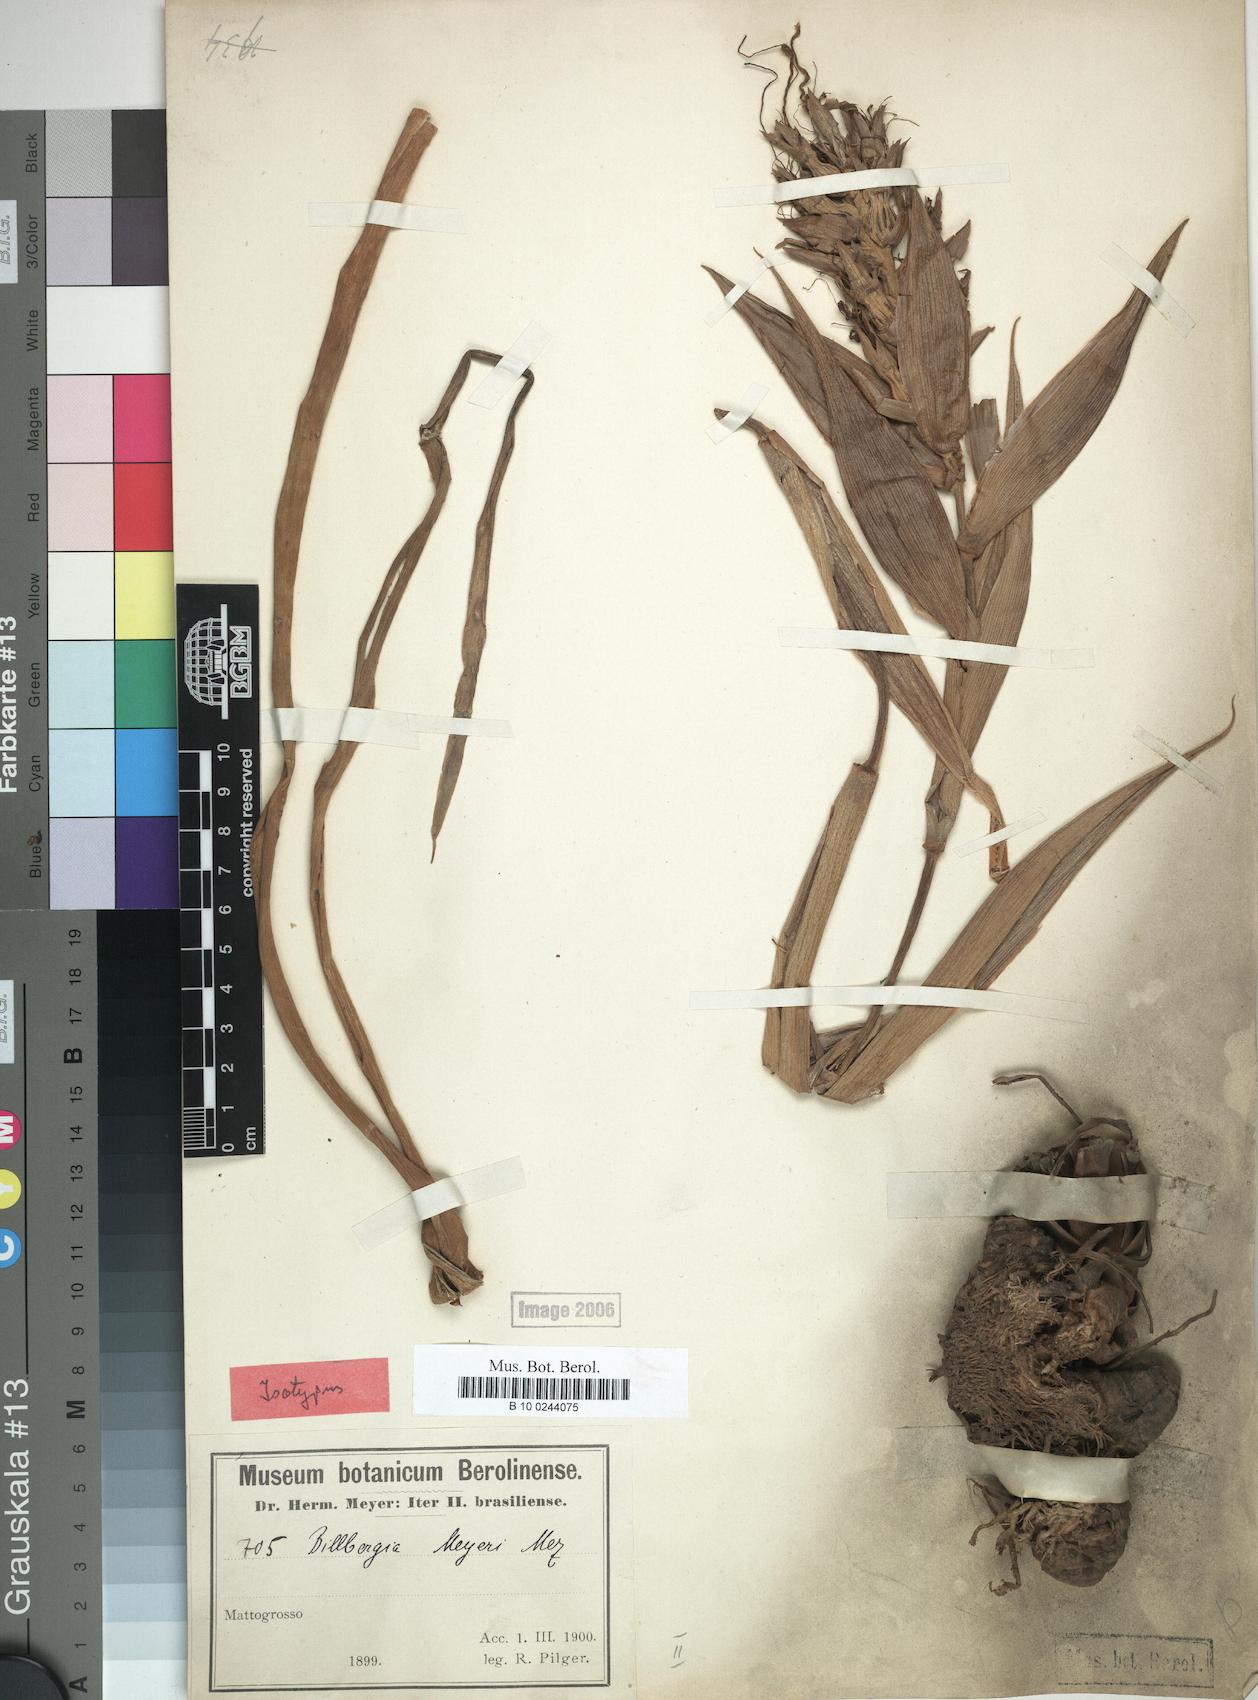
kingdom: Plantae
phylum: Tracheophyta
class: Liliopsida
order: Poales
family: Bromeliaceae
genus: Billbergia
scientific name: Billbergia meyeri
